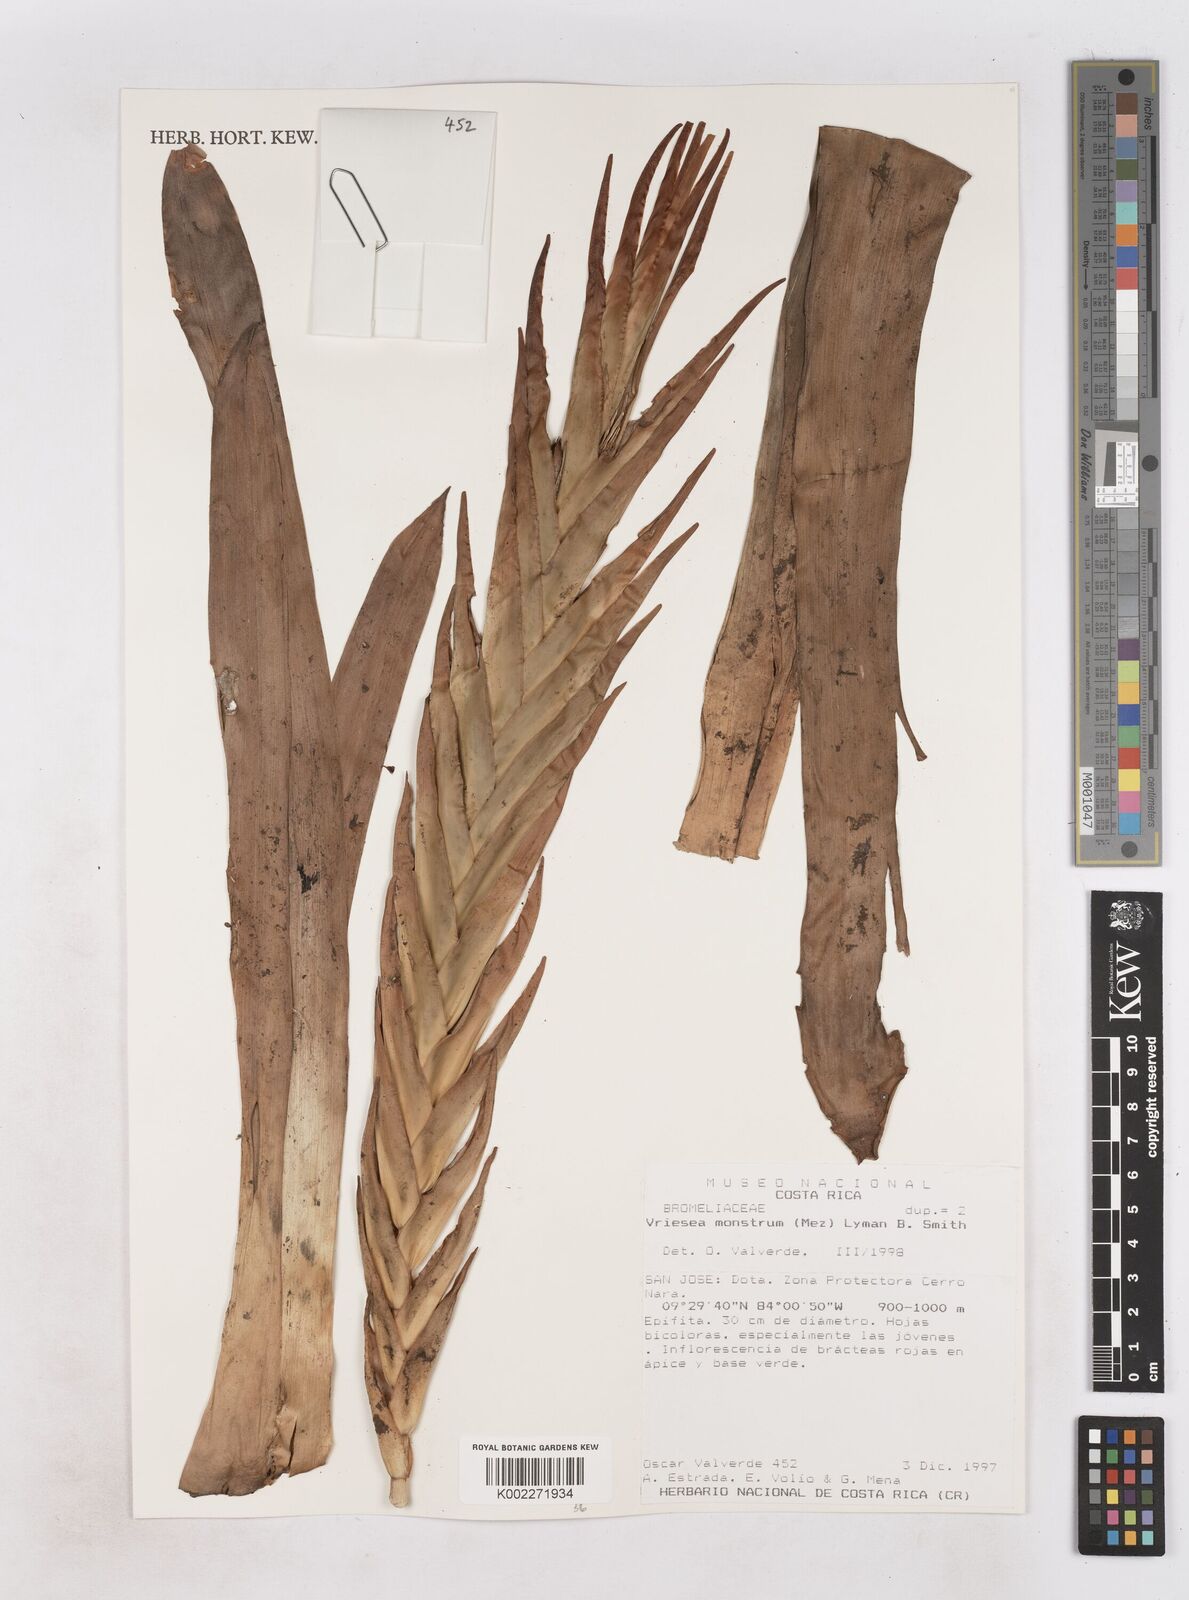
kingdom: Plantae
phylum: Tracheophyta
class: Liliopsida
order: Poales
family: Bromeliaceae
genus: Jagrantia
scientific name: Jagrantia monstrum
